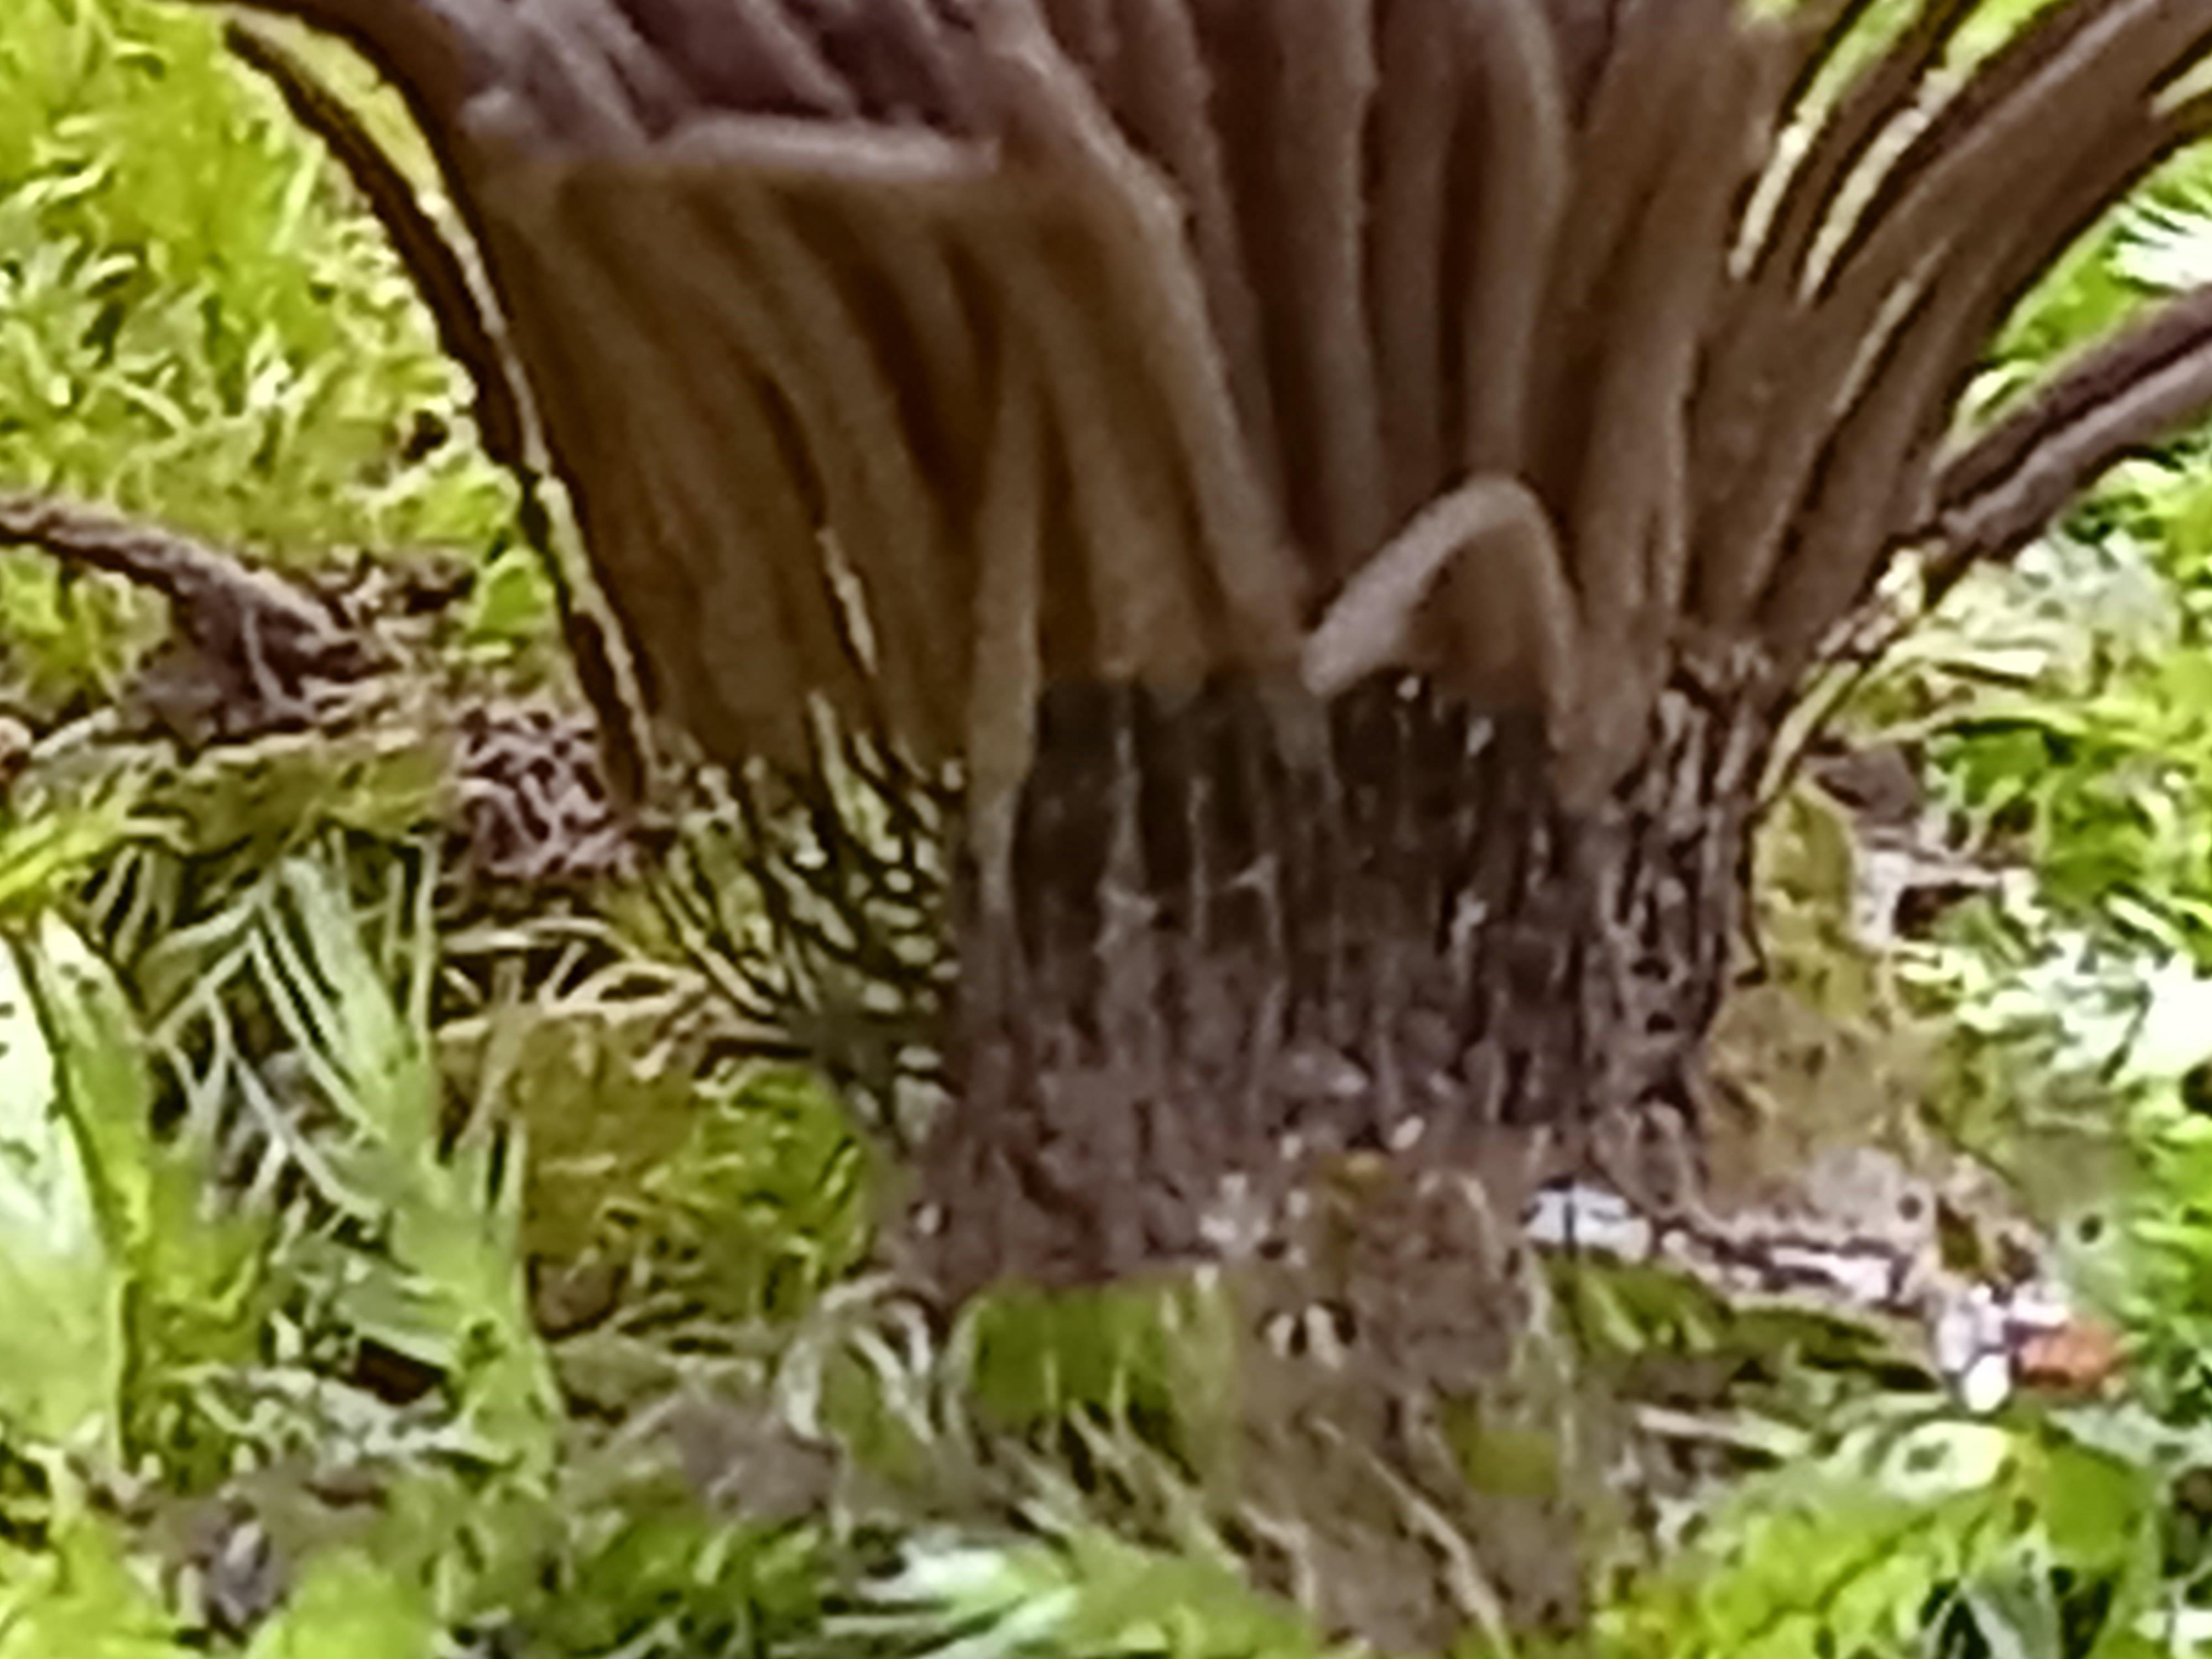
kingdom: Protozoa
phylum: Mycetozoa
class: Myxomycetes
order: Stemonitidales
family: Stemonitidaceae
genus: Stemonitis
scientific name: Stemonitis
